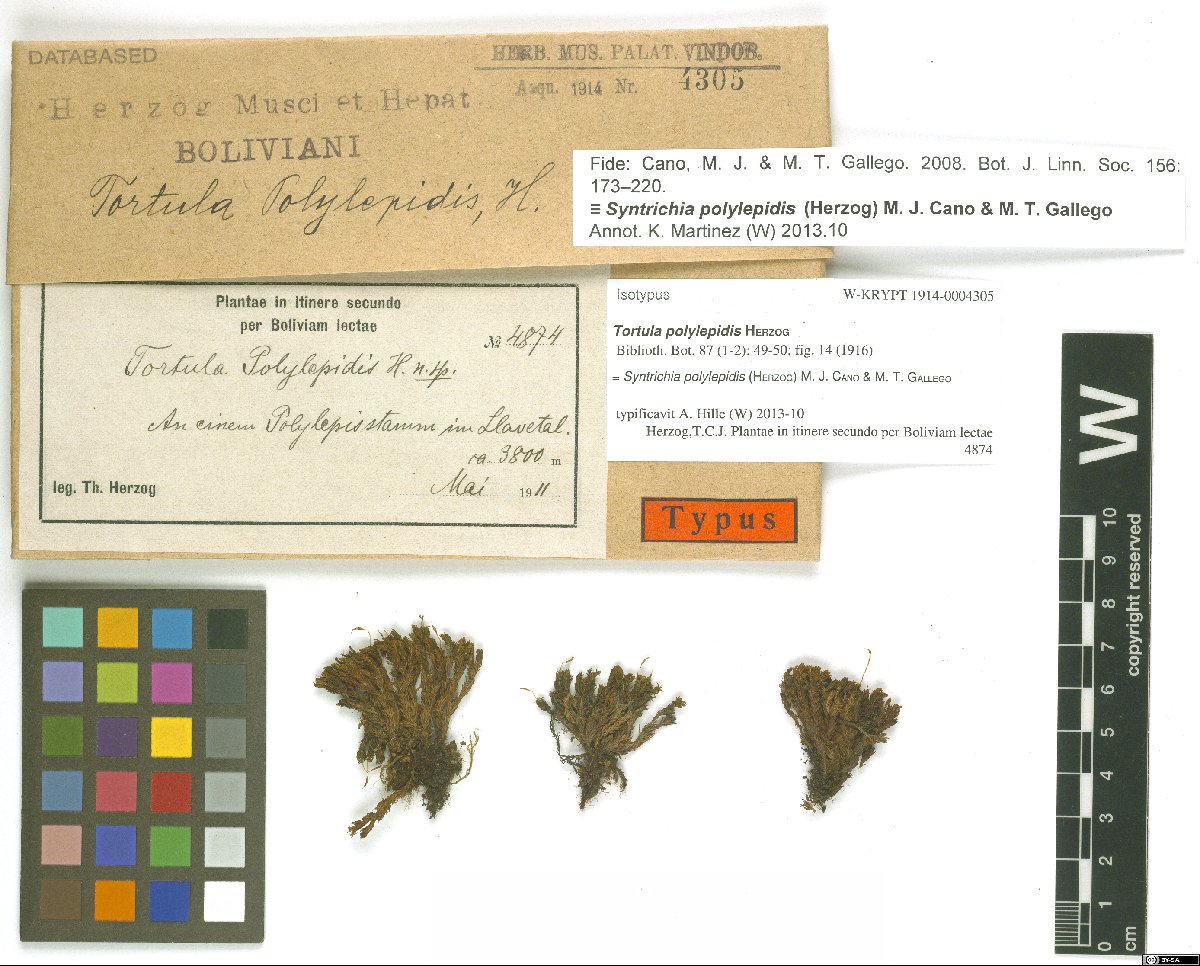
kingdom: Plantae
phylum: Bryophyta
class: Bryopsida
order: Pottiales
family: Pottiaceae
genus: Syntrichia
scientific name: Syntrichia polylepidis
